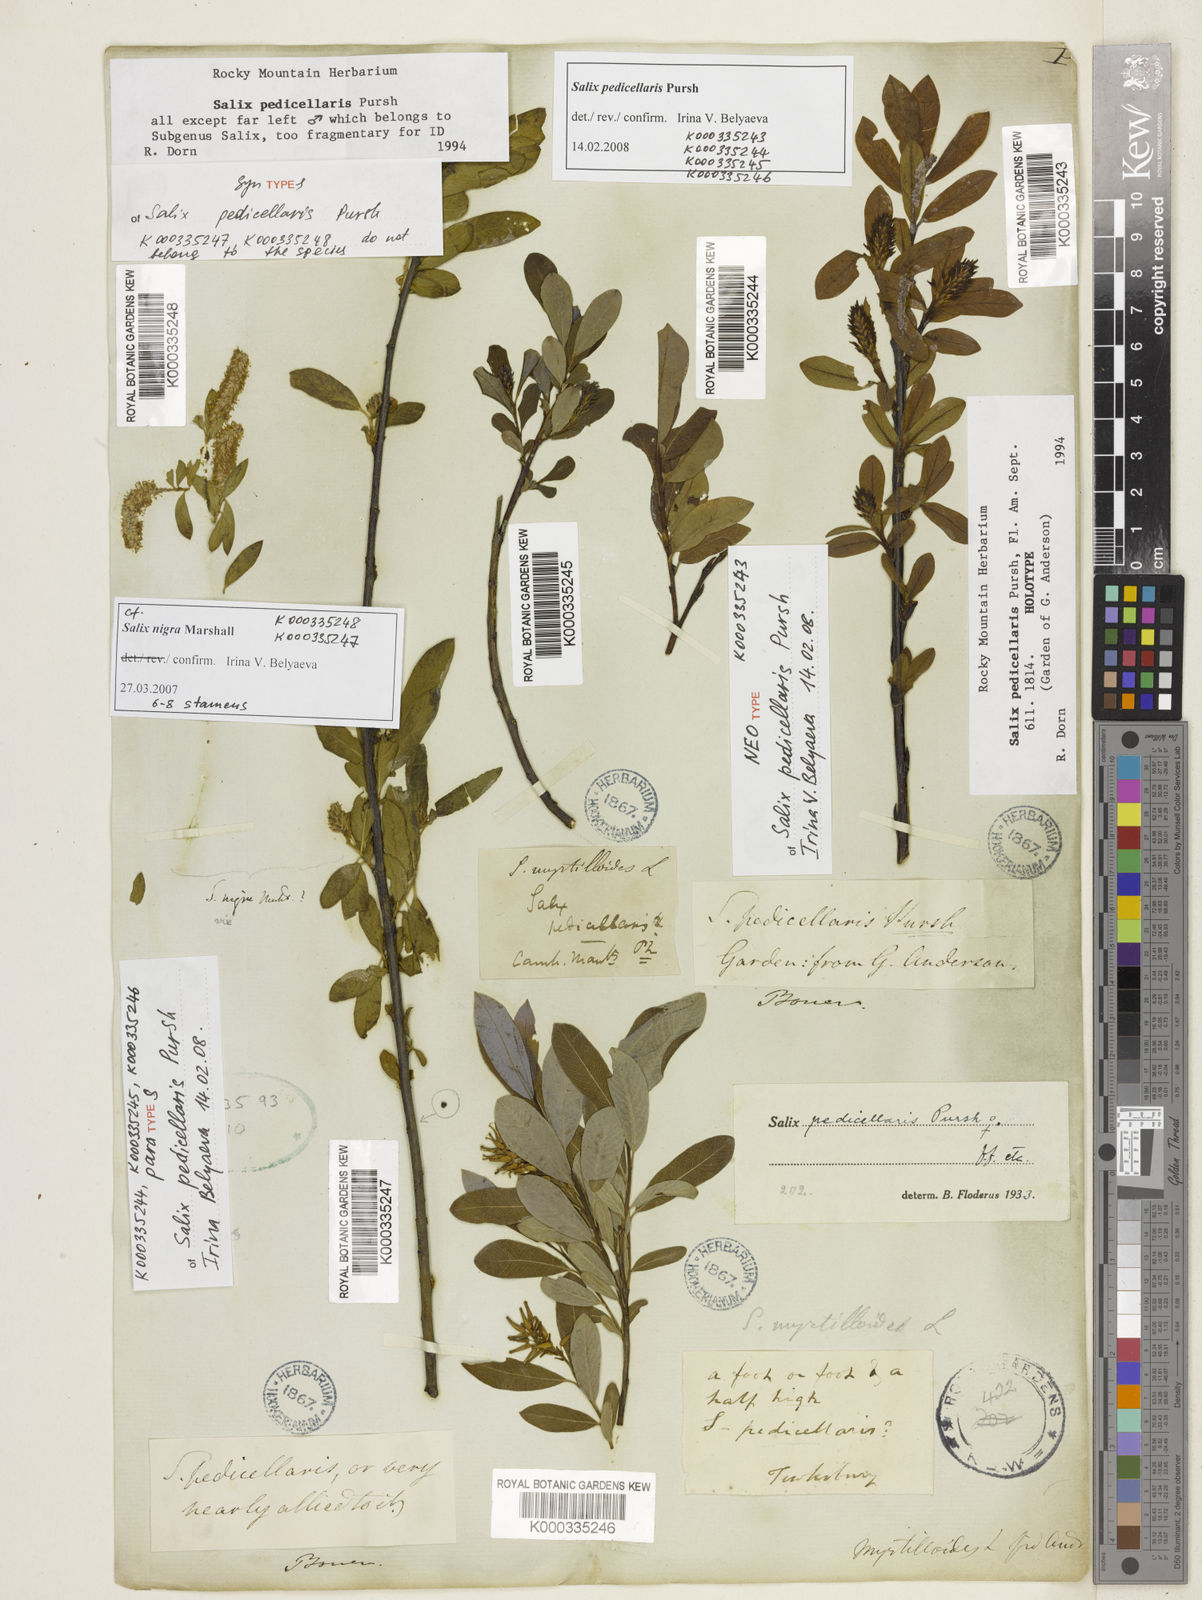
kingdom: Plantae
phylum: Tracheophyta
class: Magnoliopsida
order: Malpighiales
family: Salicaceae
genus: Salix
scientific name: Salix pedicellaris
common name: Bog willow
